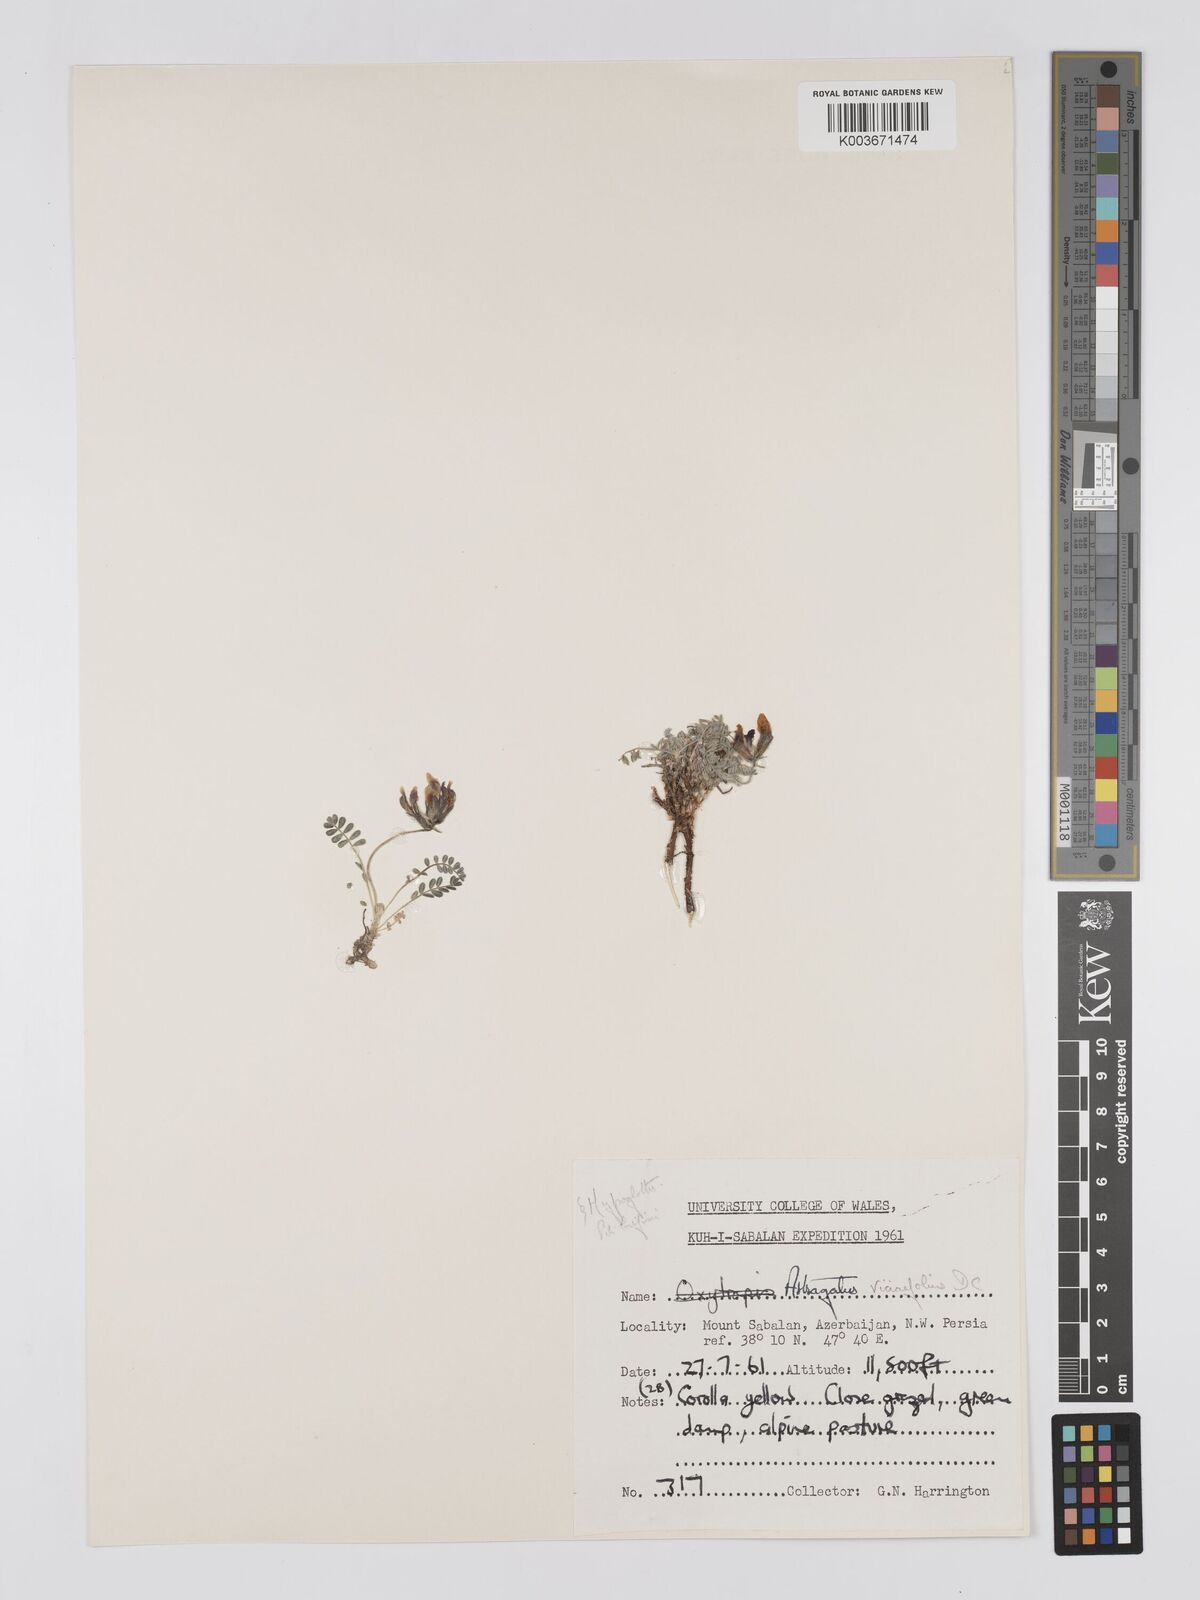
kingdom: Plantae
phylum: Tracheophyta
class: Magnoliopsida
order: Fabales
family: Fabaceae
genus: Astragalus
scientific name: Astragalus humifusus
